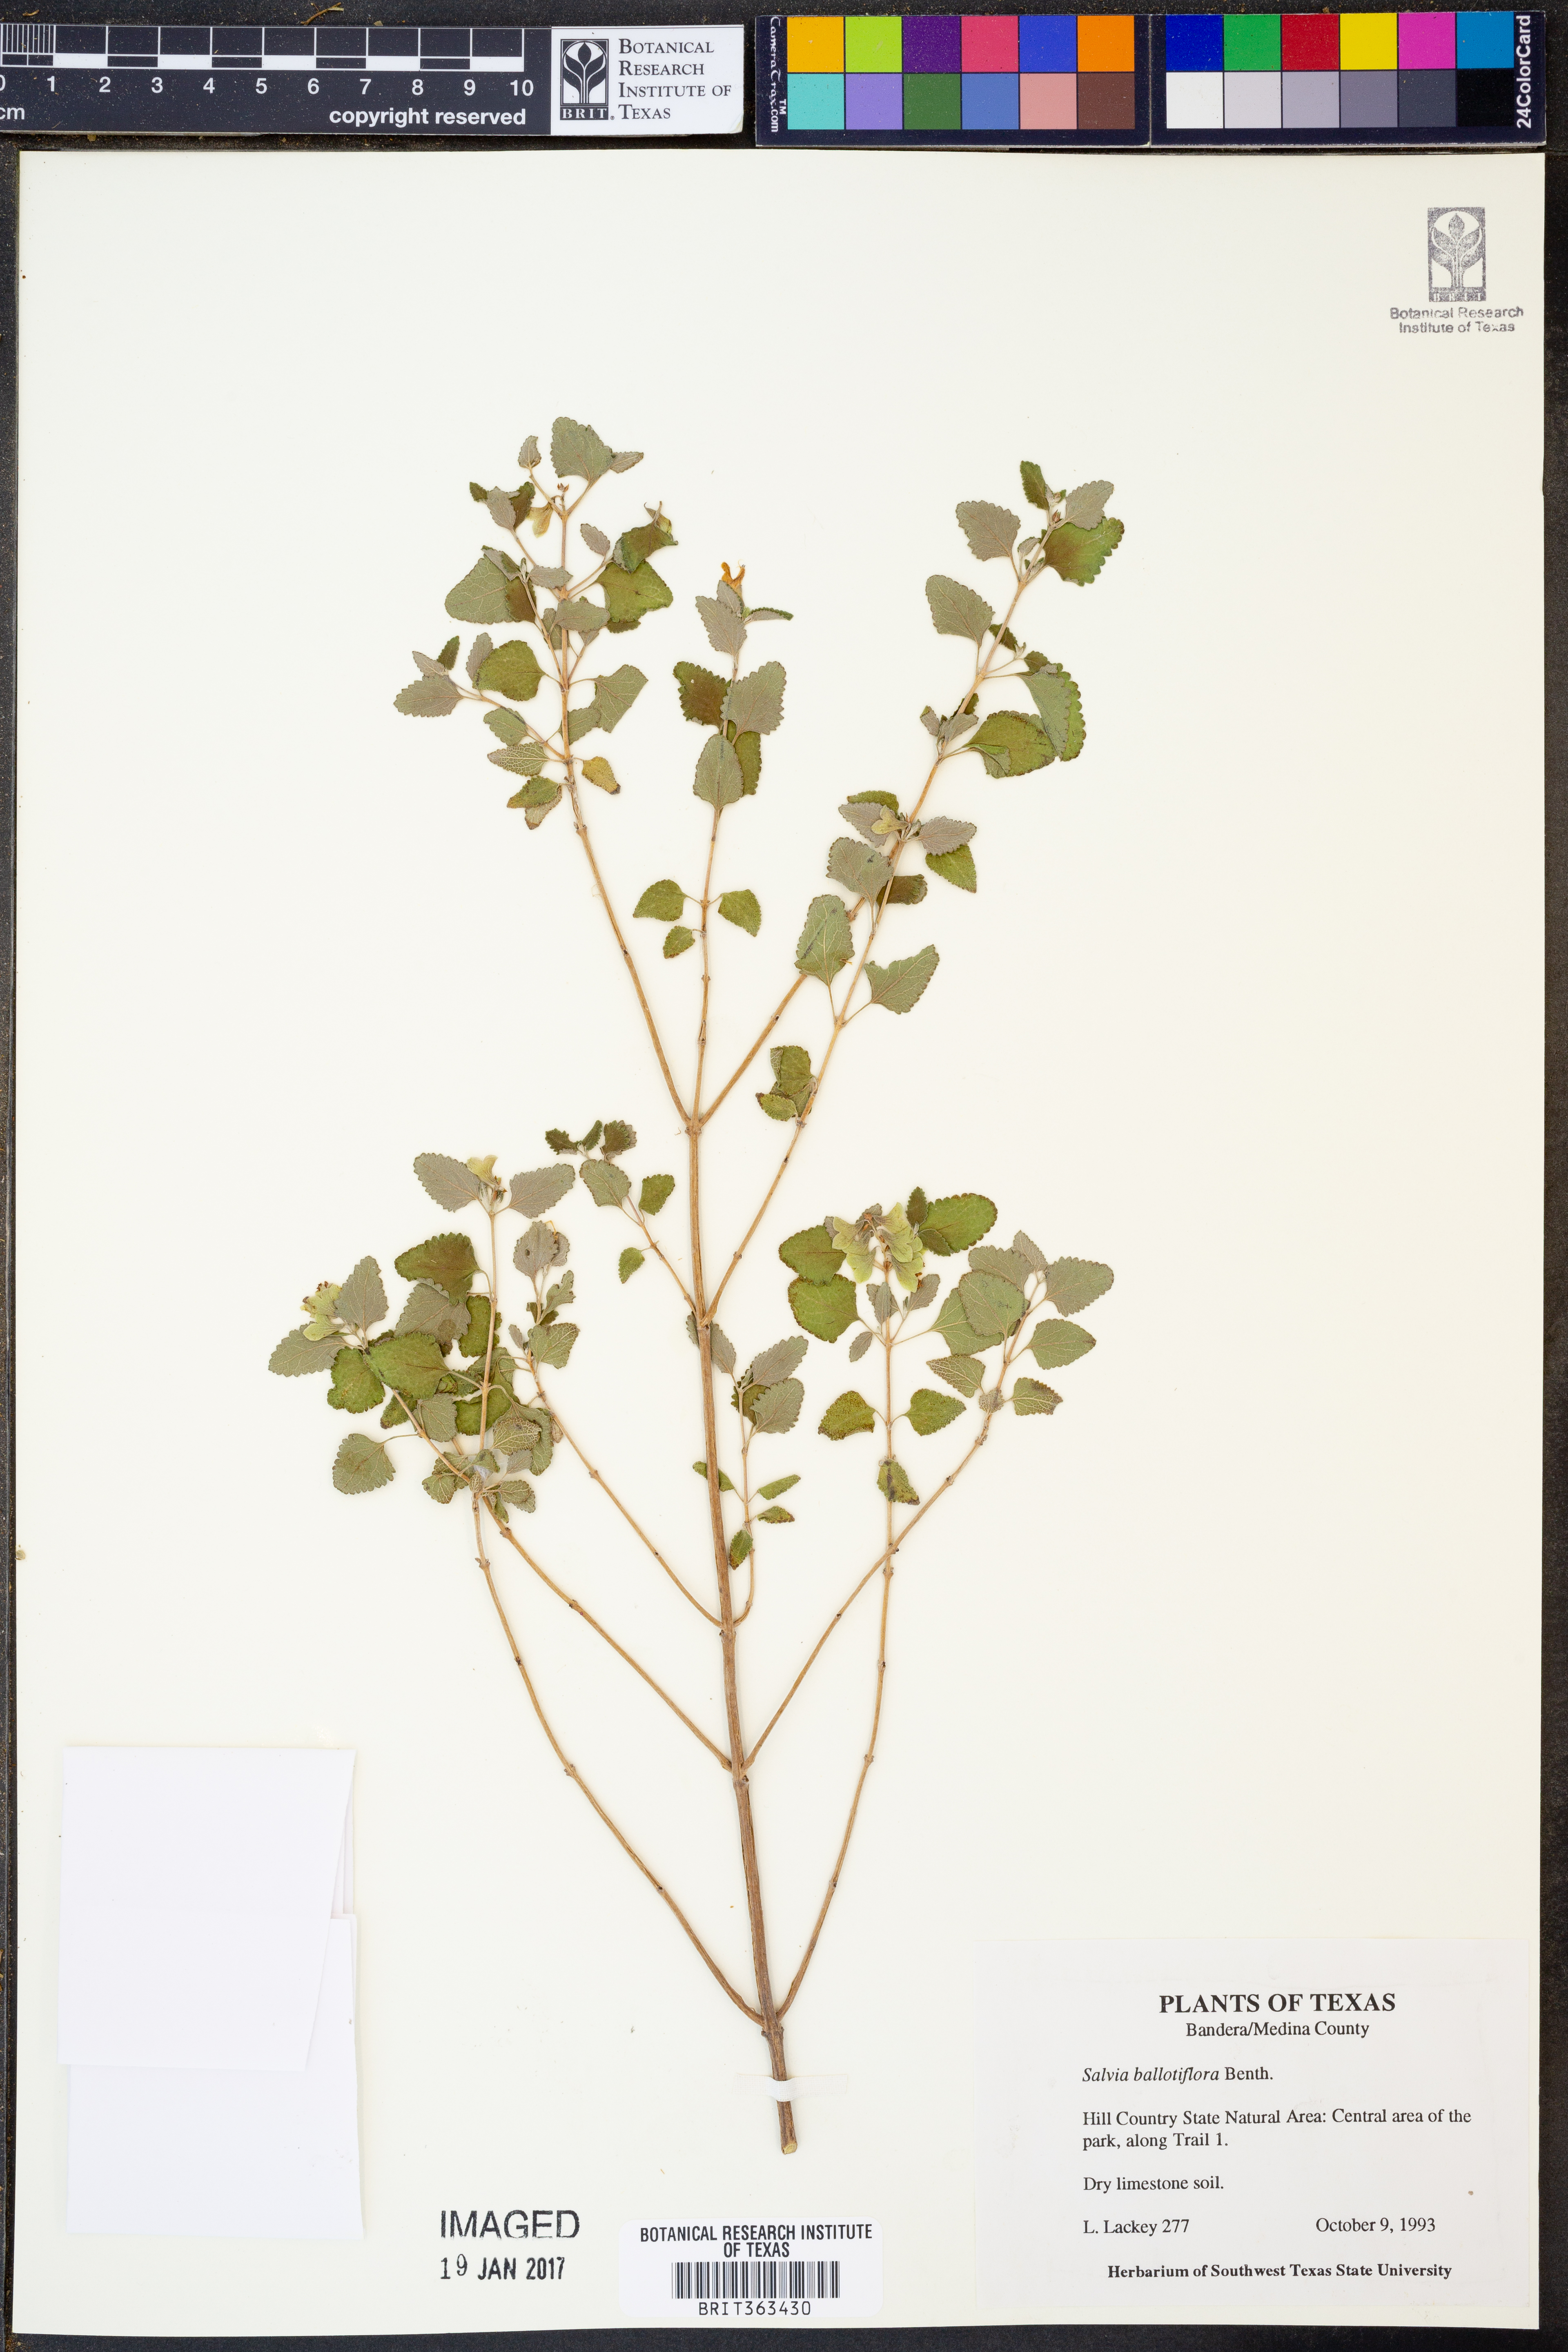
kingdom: Plantae
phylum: Tracheophyta
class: Magnoliopsida
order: Lamiales
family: Lamiaceae
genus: Salvia
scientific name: Salvia ballotiflora
